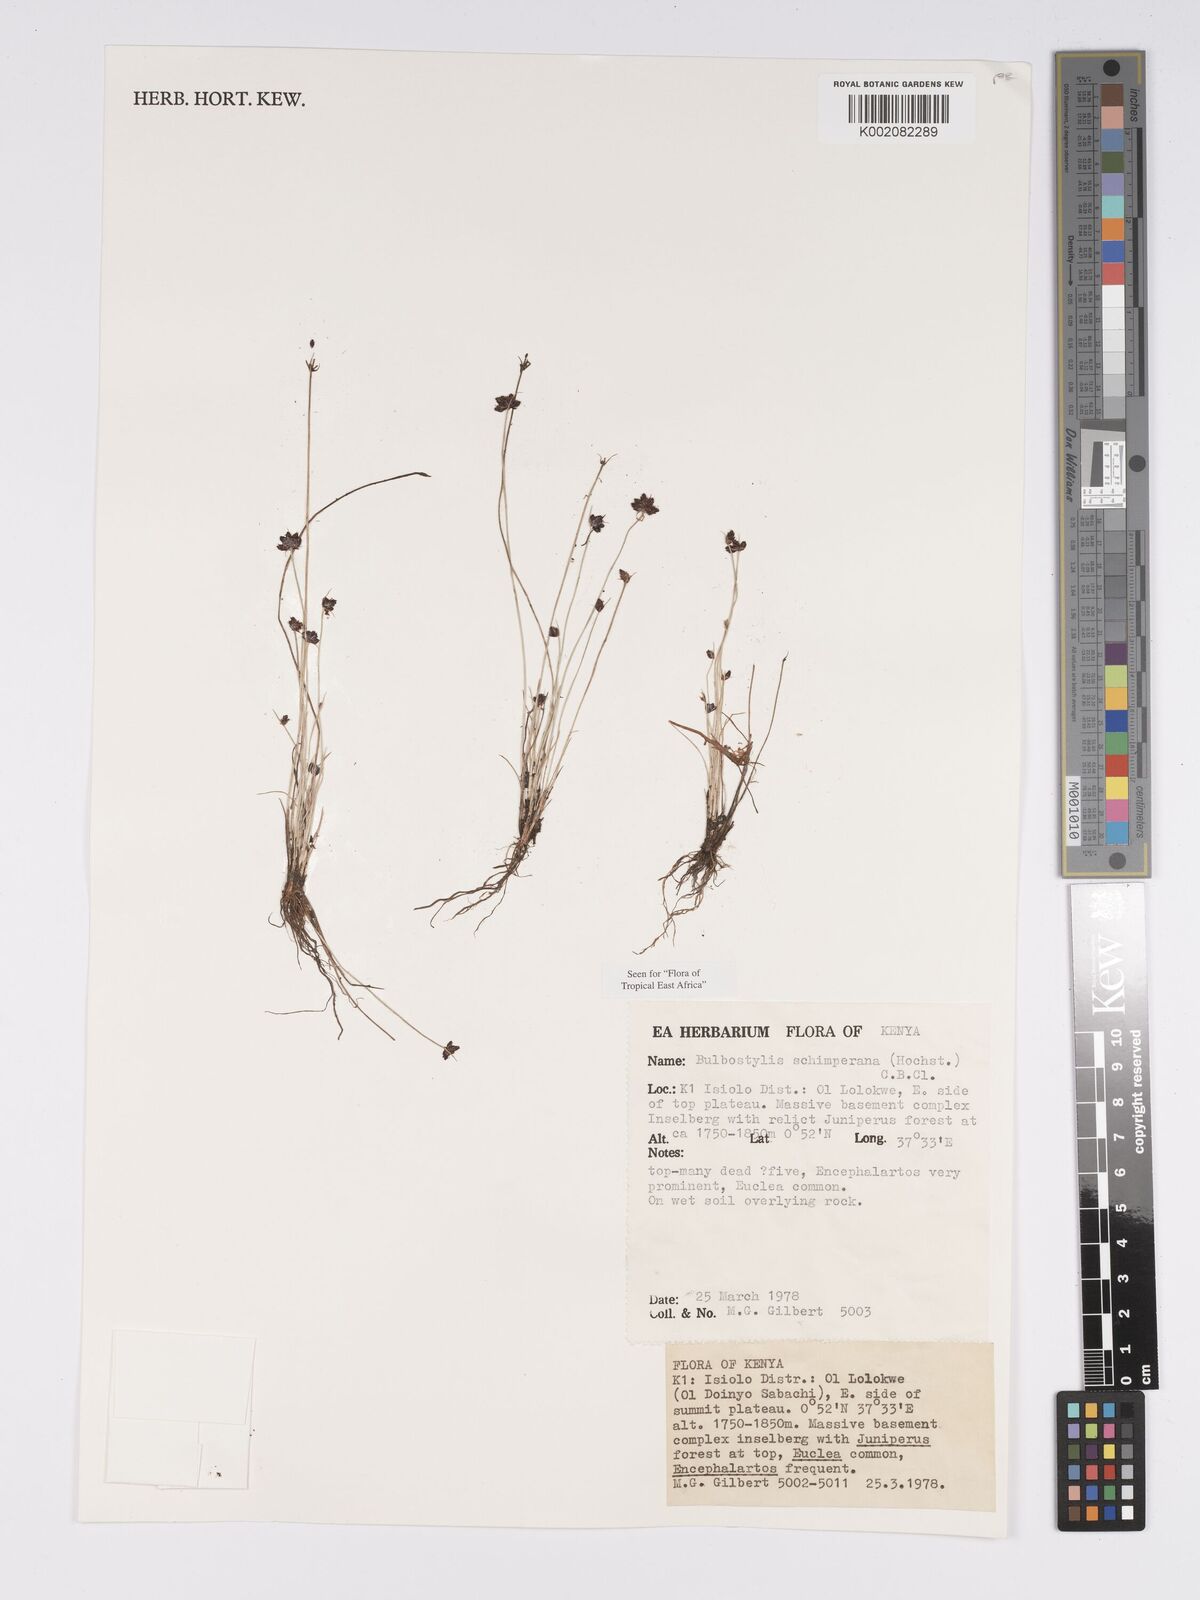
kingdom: Plantae
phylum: Tracheophyta
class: Liliopsida
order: Poales
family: Cyperaceae
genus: Bulbostylis
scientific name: Bulbostylis schimperiana
